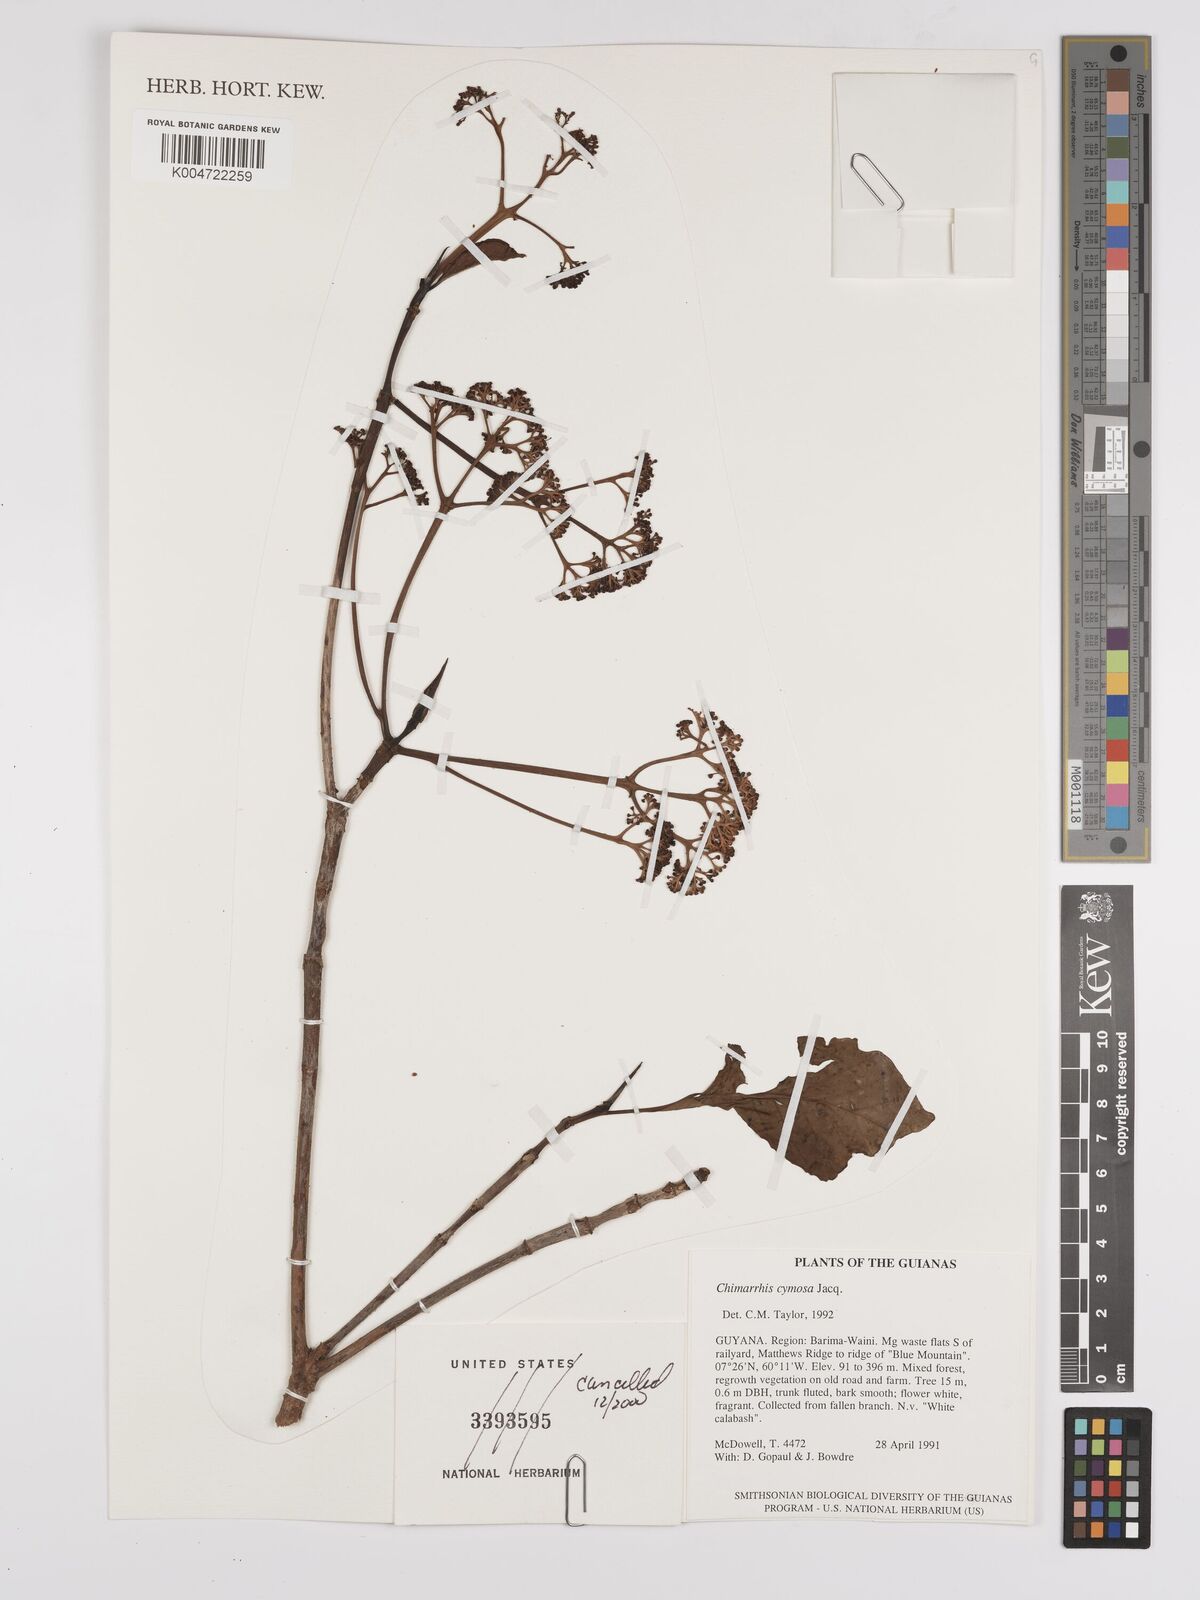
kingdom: Plantae
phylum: Tracheophyta
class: Magnoliopsida
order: Gentianales
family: Rubiaceae
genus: Chimarrhis
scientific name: Chimarrhis microcarpa
